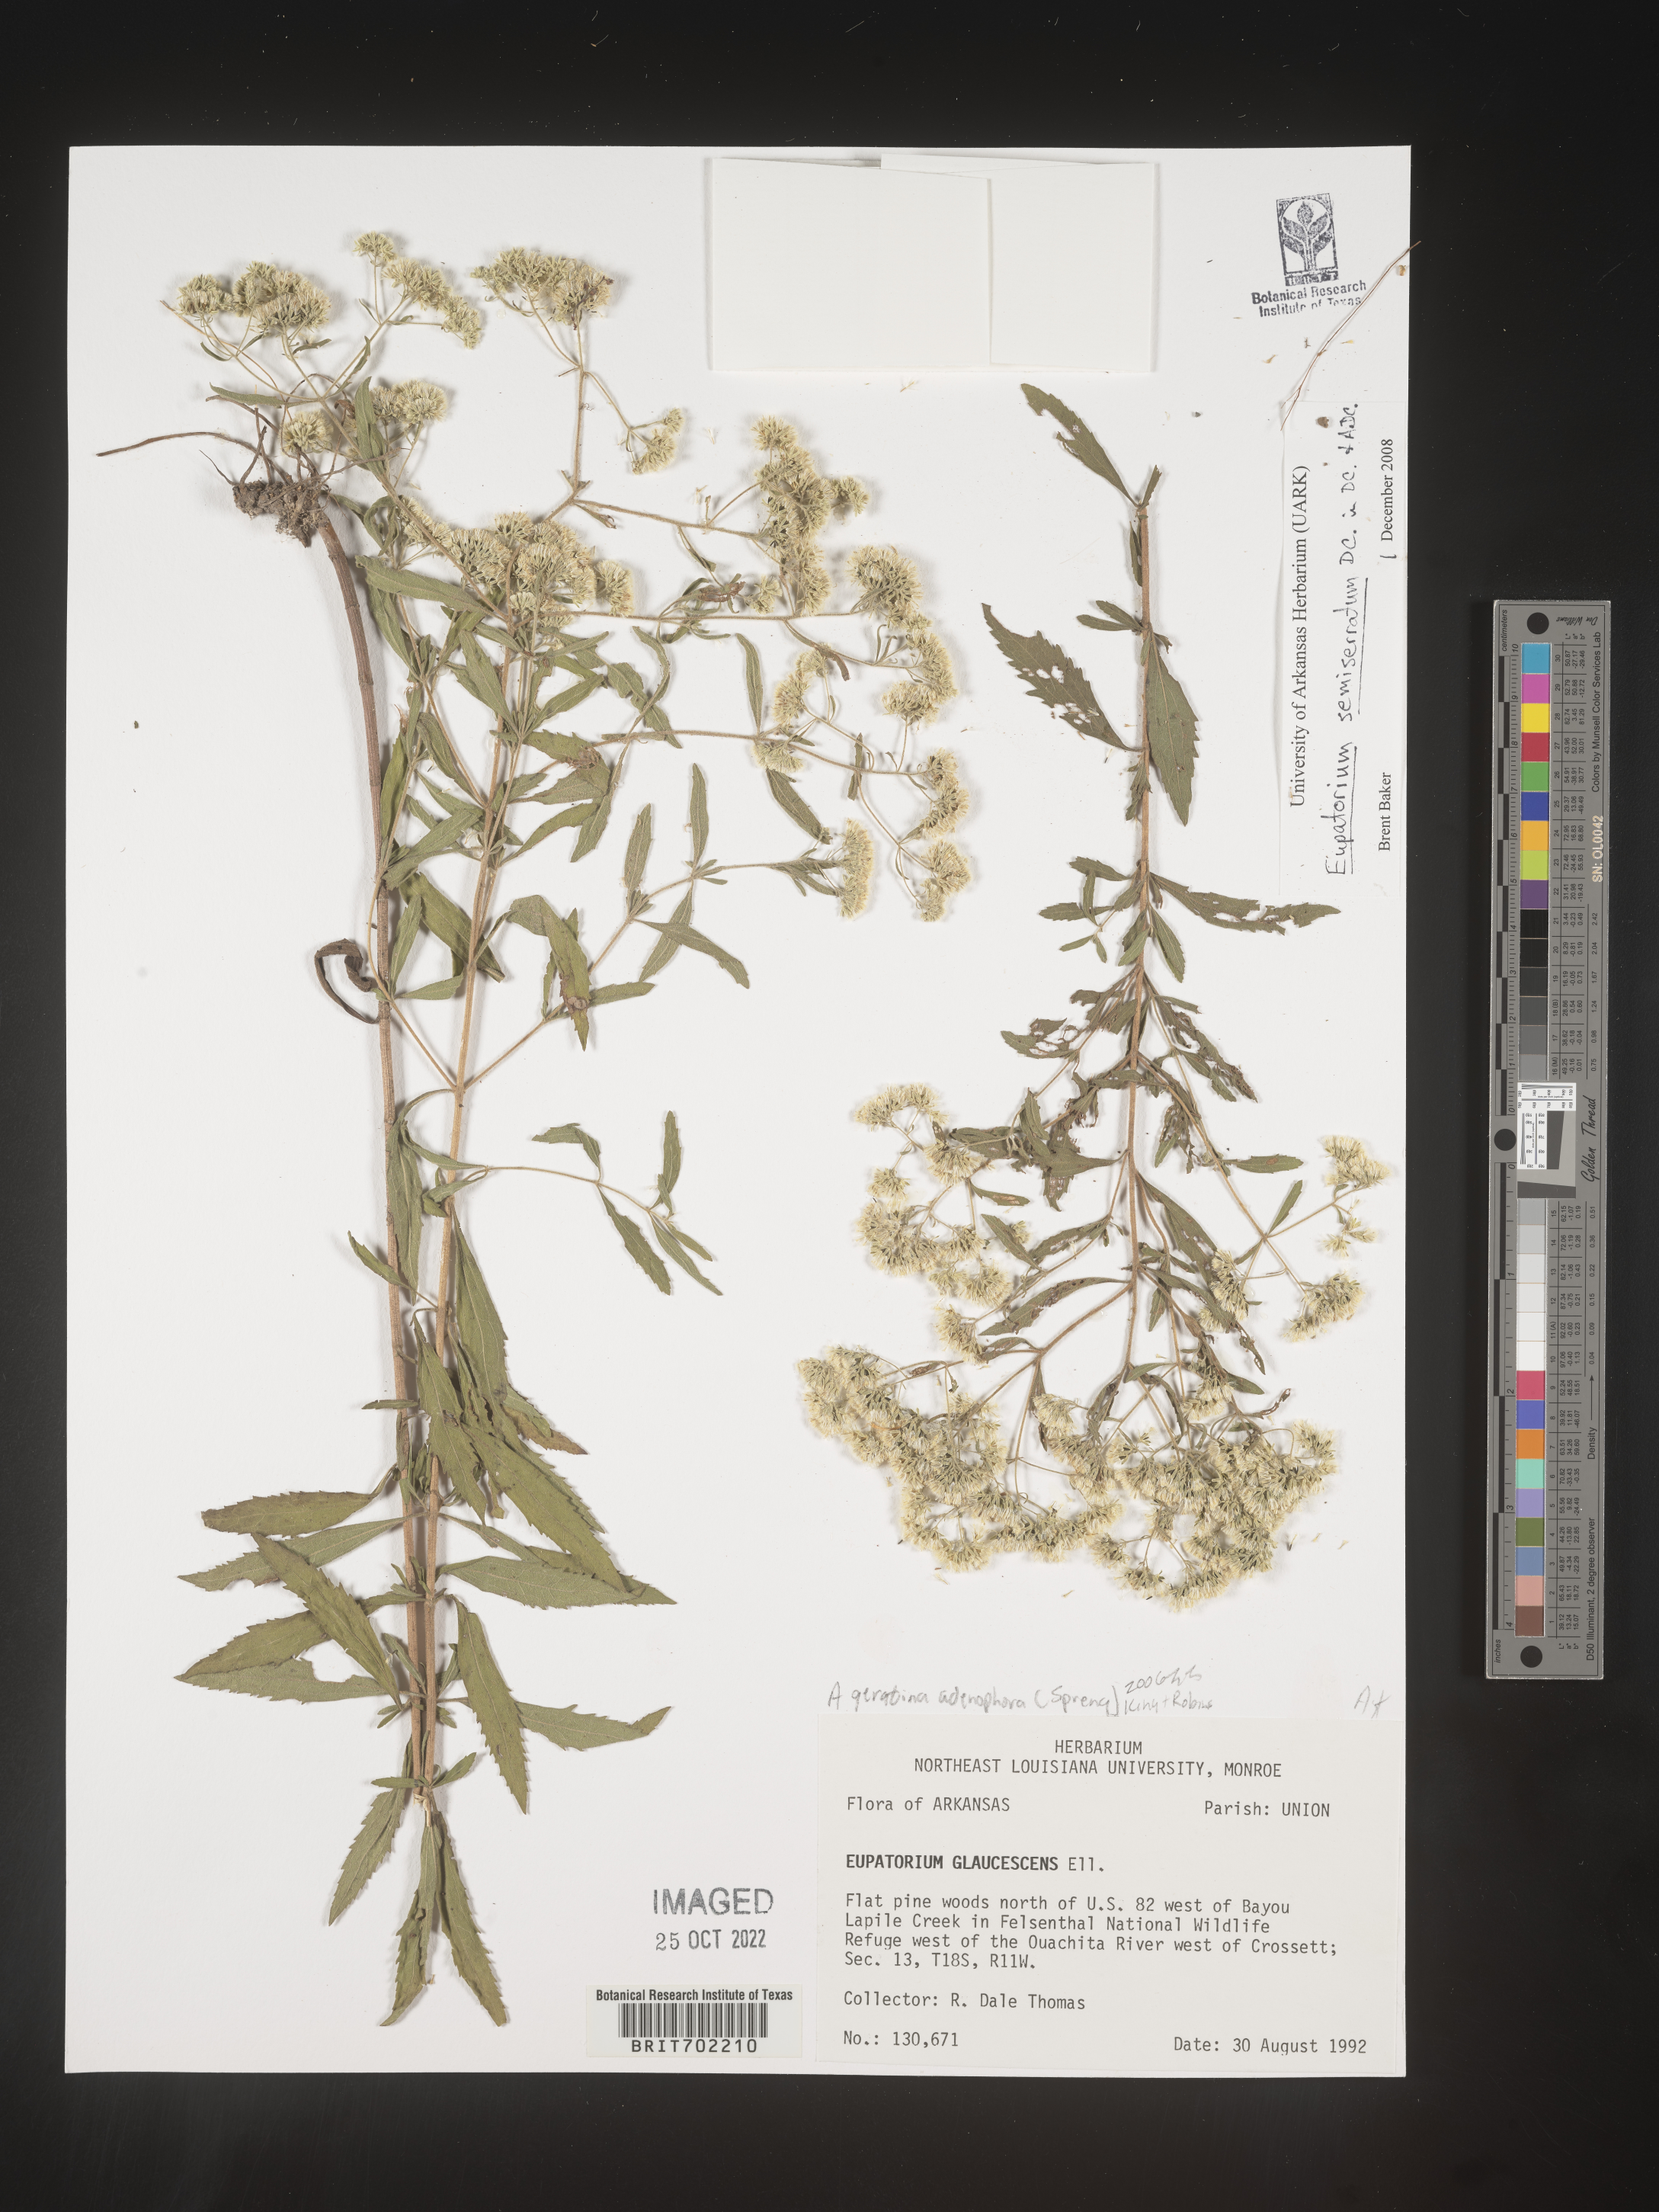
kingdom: Plantae
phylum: Tracheophyta
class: Magnoliopsida
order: Asterales
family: Asteraceae
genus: Eupatorium
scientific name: Eupatorium semiserratum
